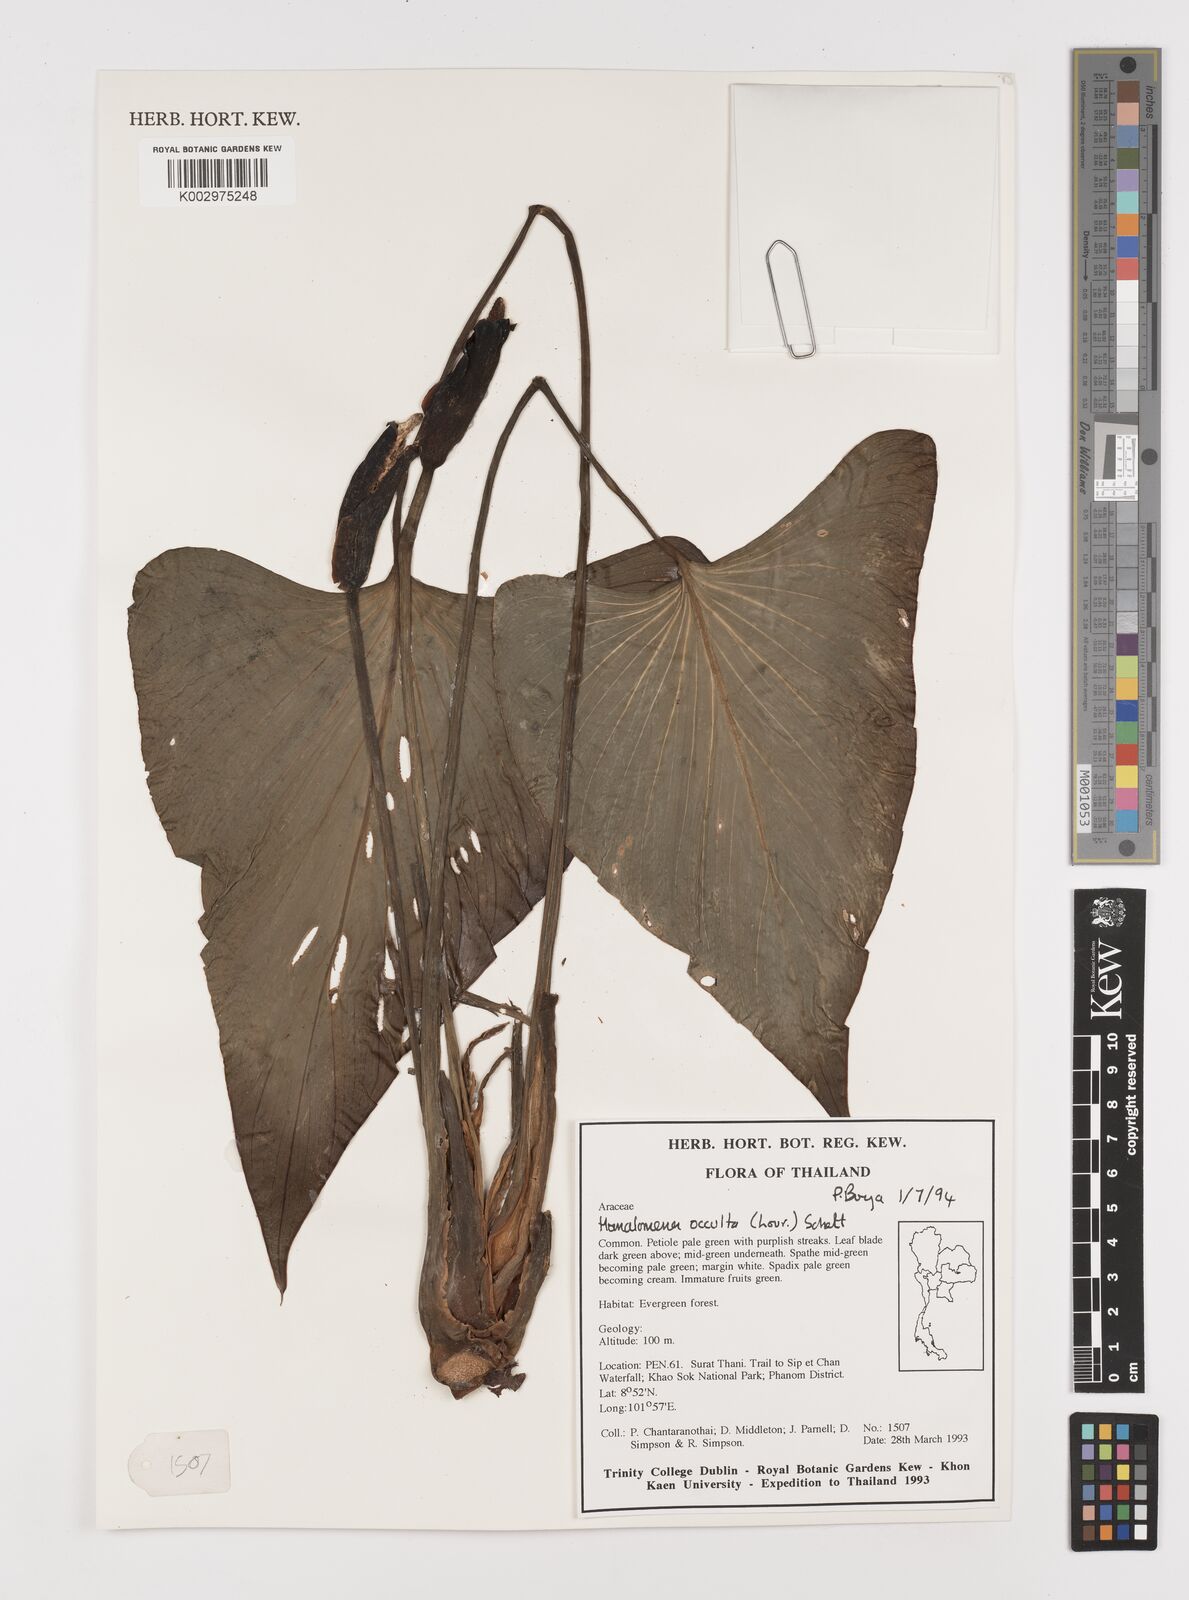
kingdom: Plantae
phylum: Tracheophyta
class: Liliopsida
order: Alismatales
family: Araceae
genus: Homalomena
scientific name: Homalomena occulta
